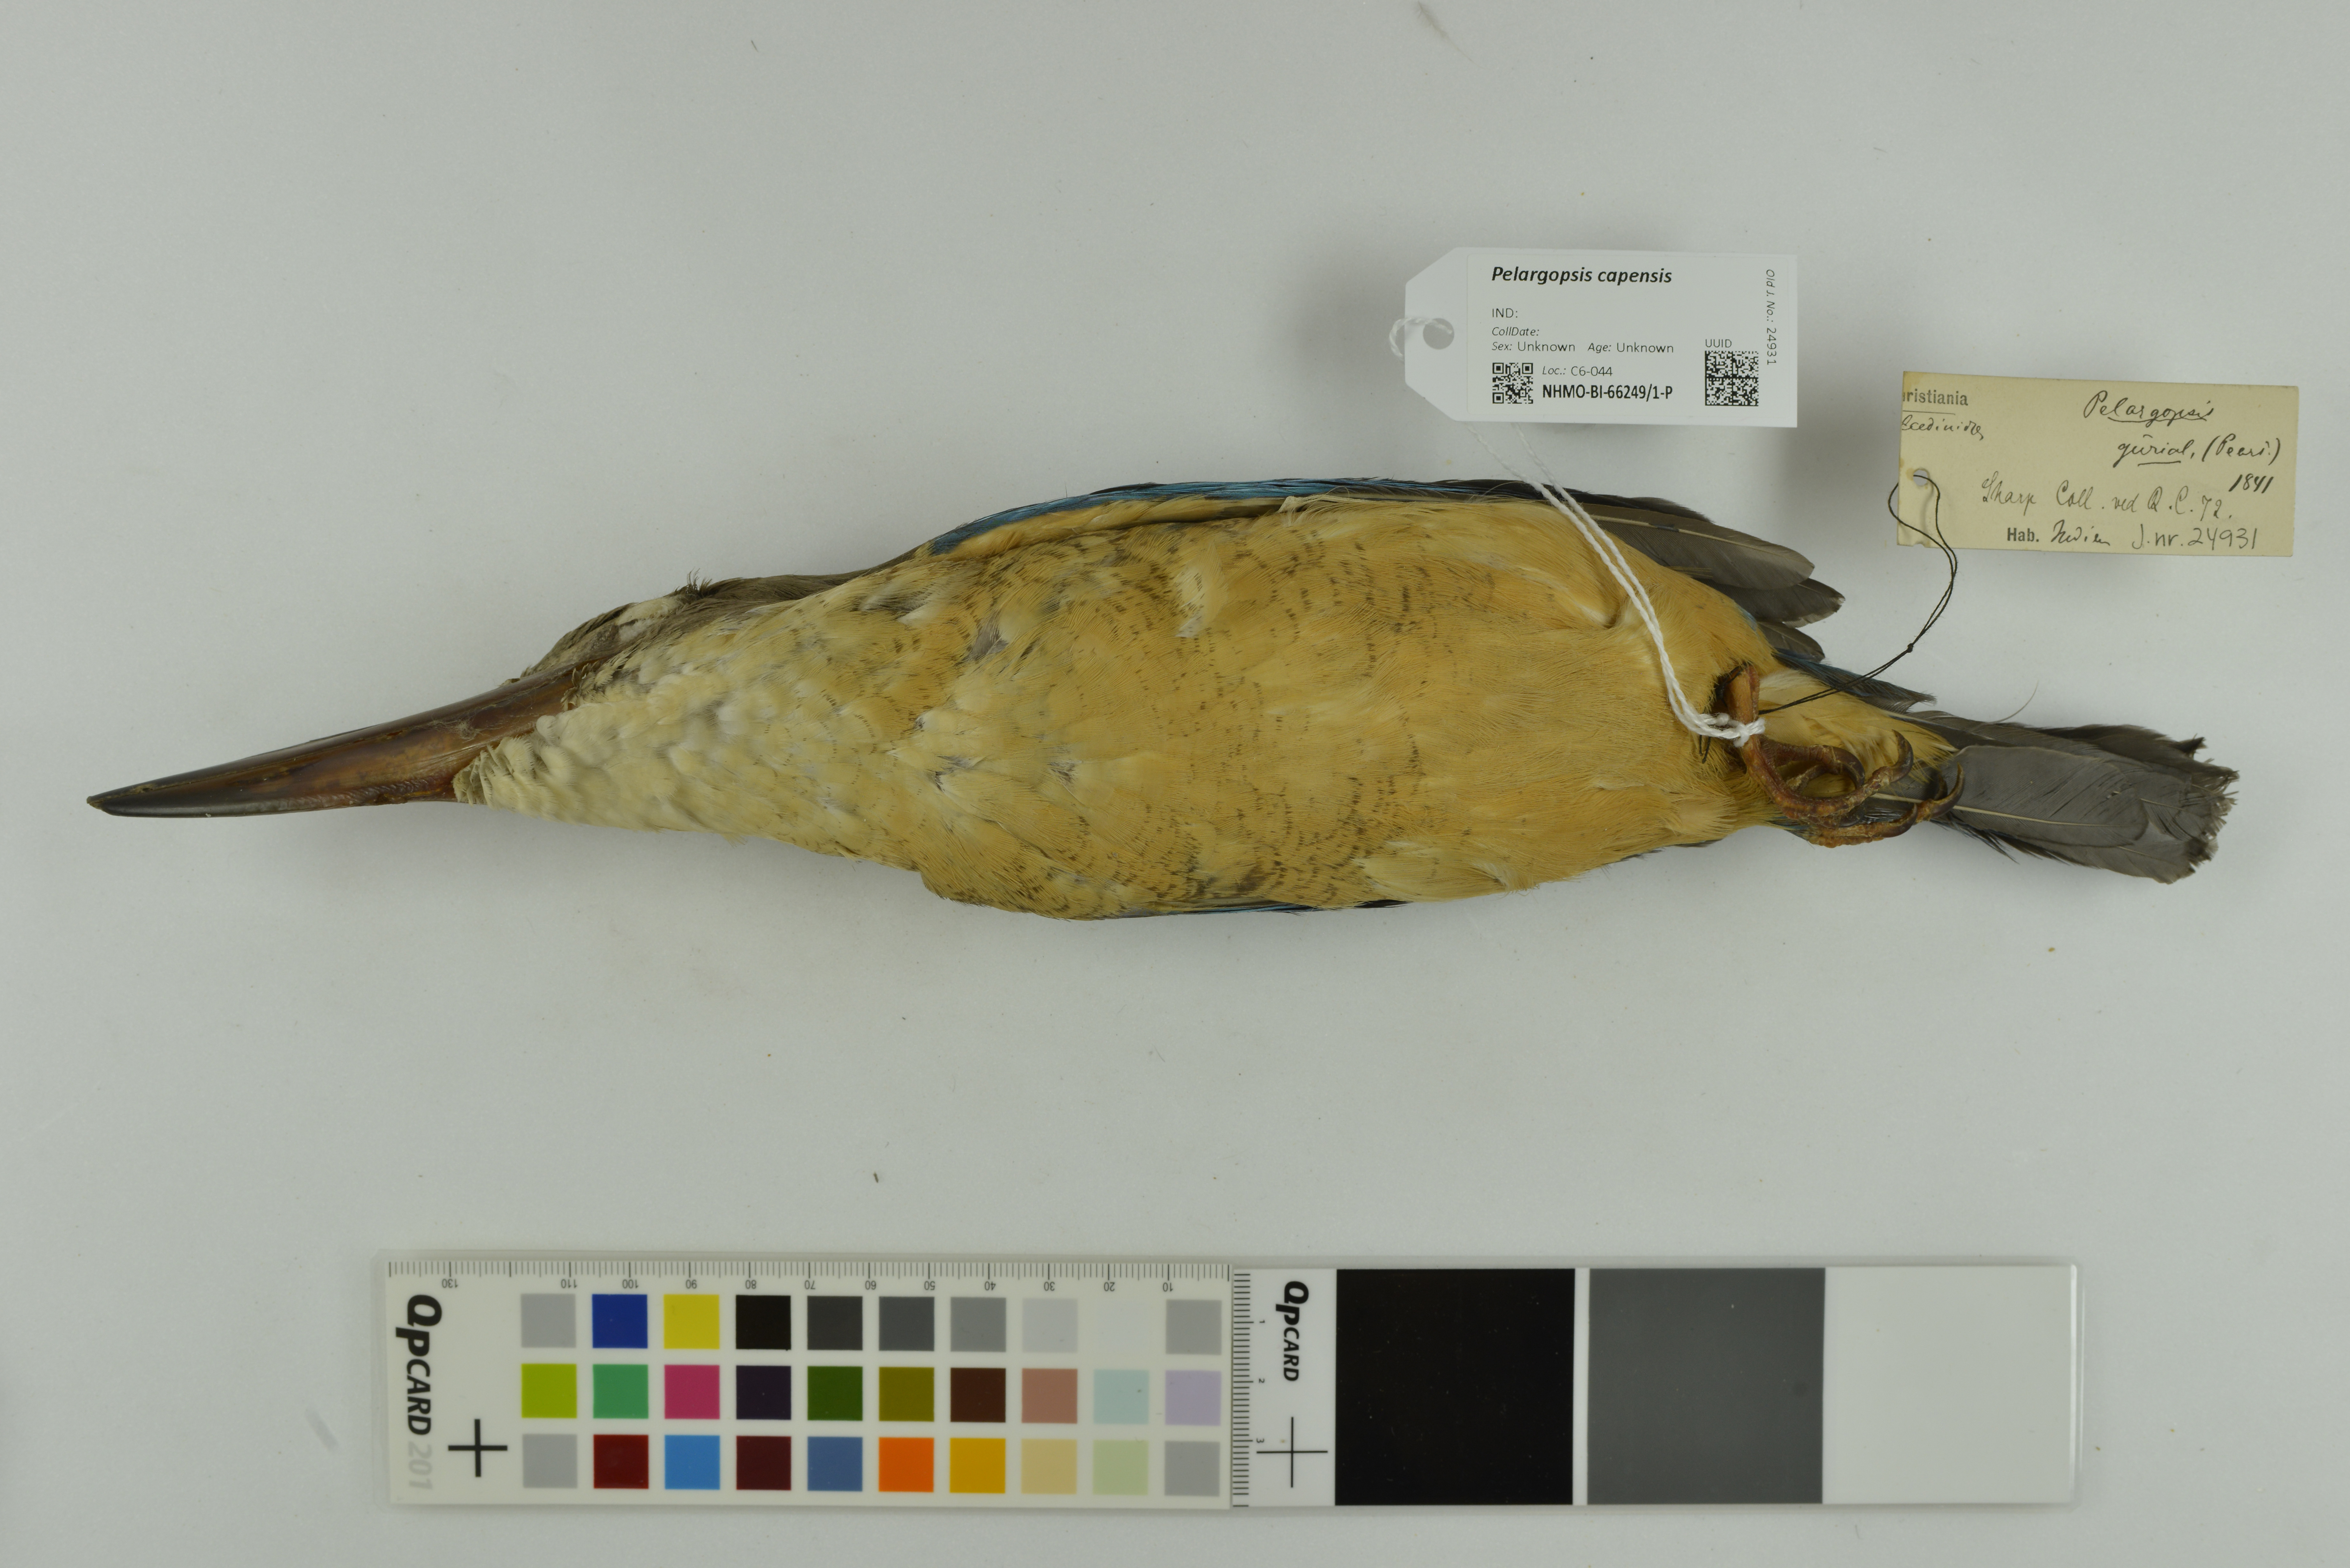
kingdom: Animalia
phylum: Chordata
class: Aves
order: Coraciiformes
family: Alcedinidae
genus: Pelargopsis
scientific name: Pelargopsis capensis
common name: Stork-billed kingfisher
